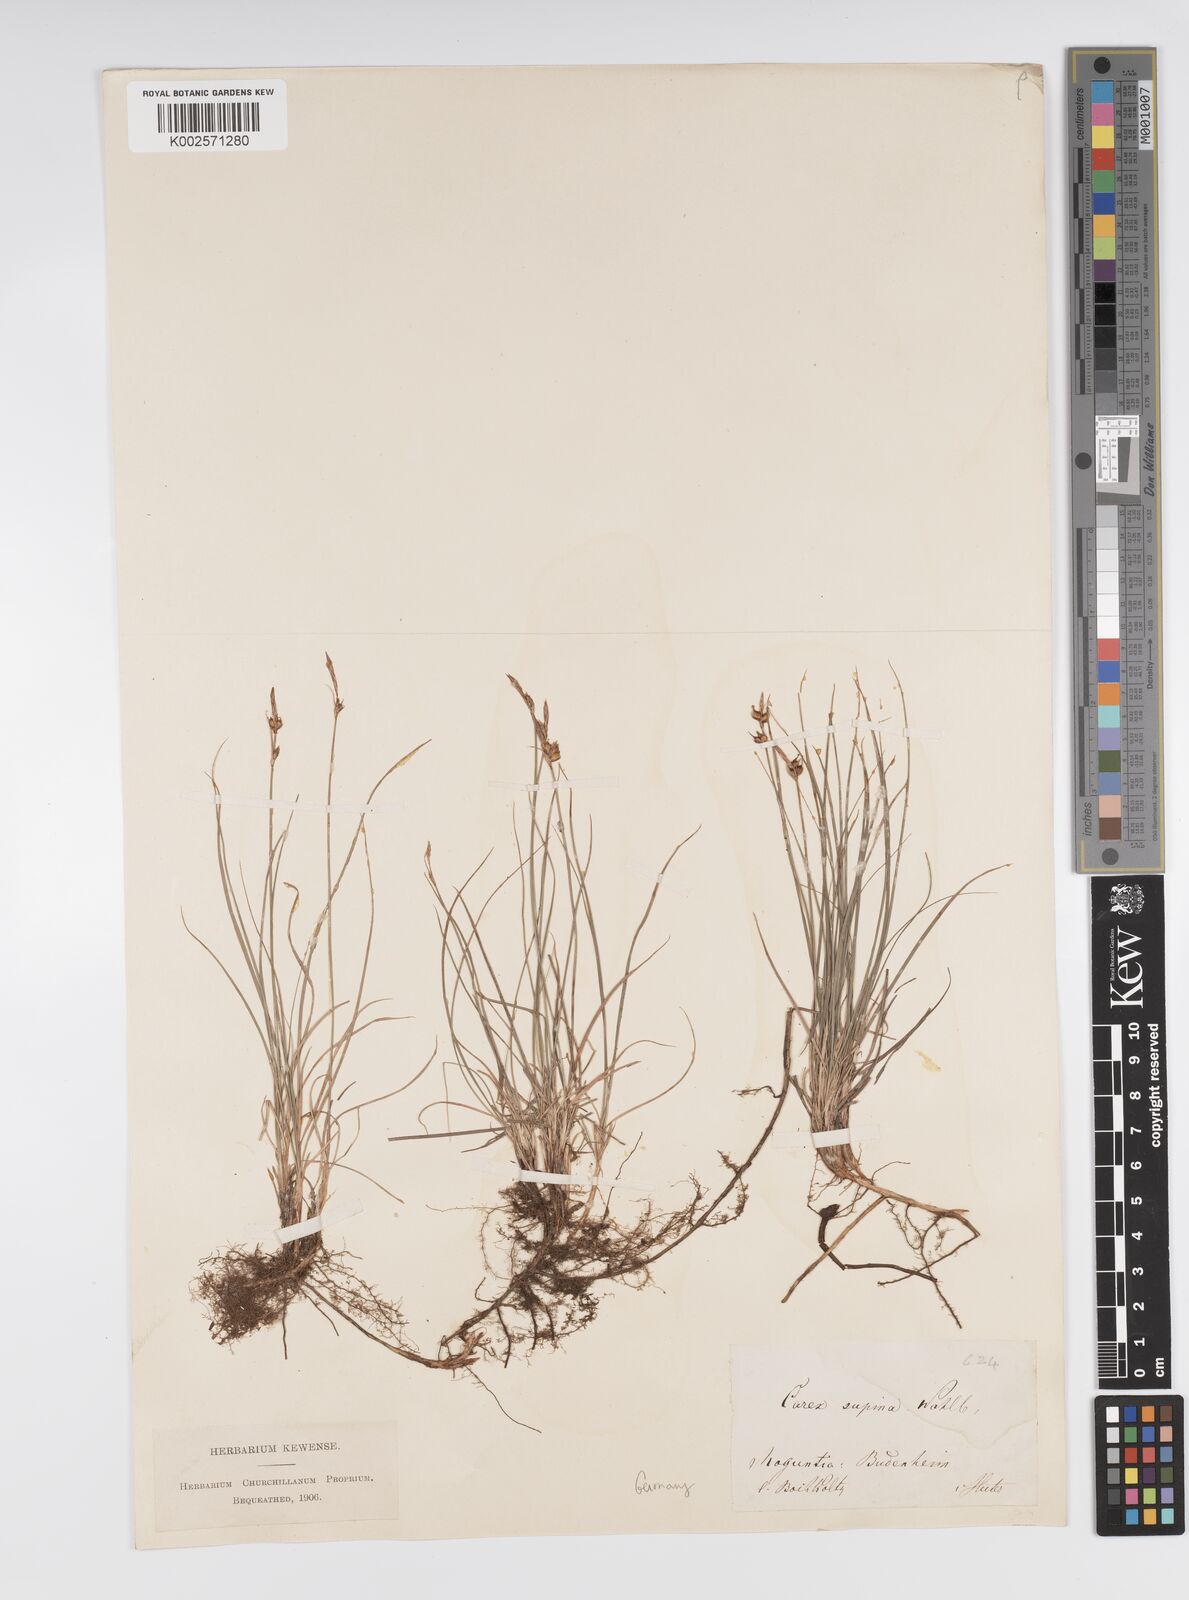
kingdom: Plantae
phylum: Tracheophyta
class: Liliopsida
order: Poales
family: Cyperaceae
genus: Carex
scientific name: Carex supina
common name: Lying-back sedge
